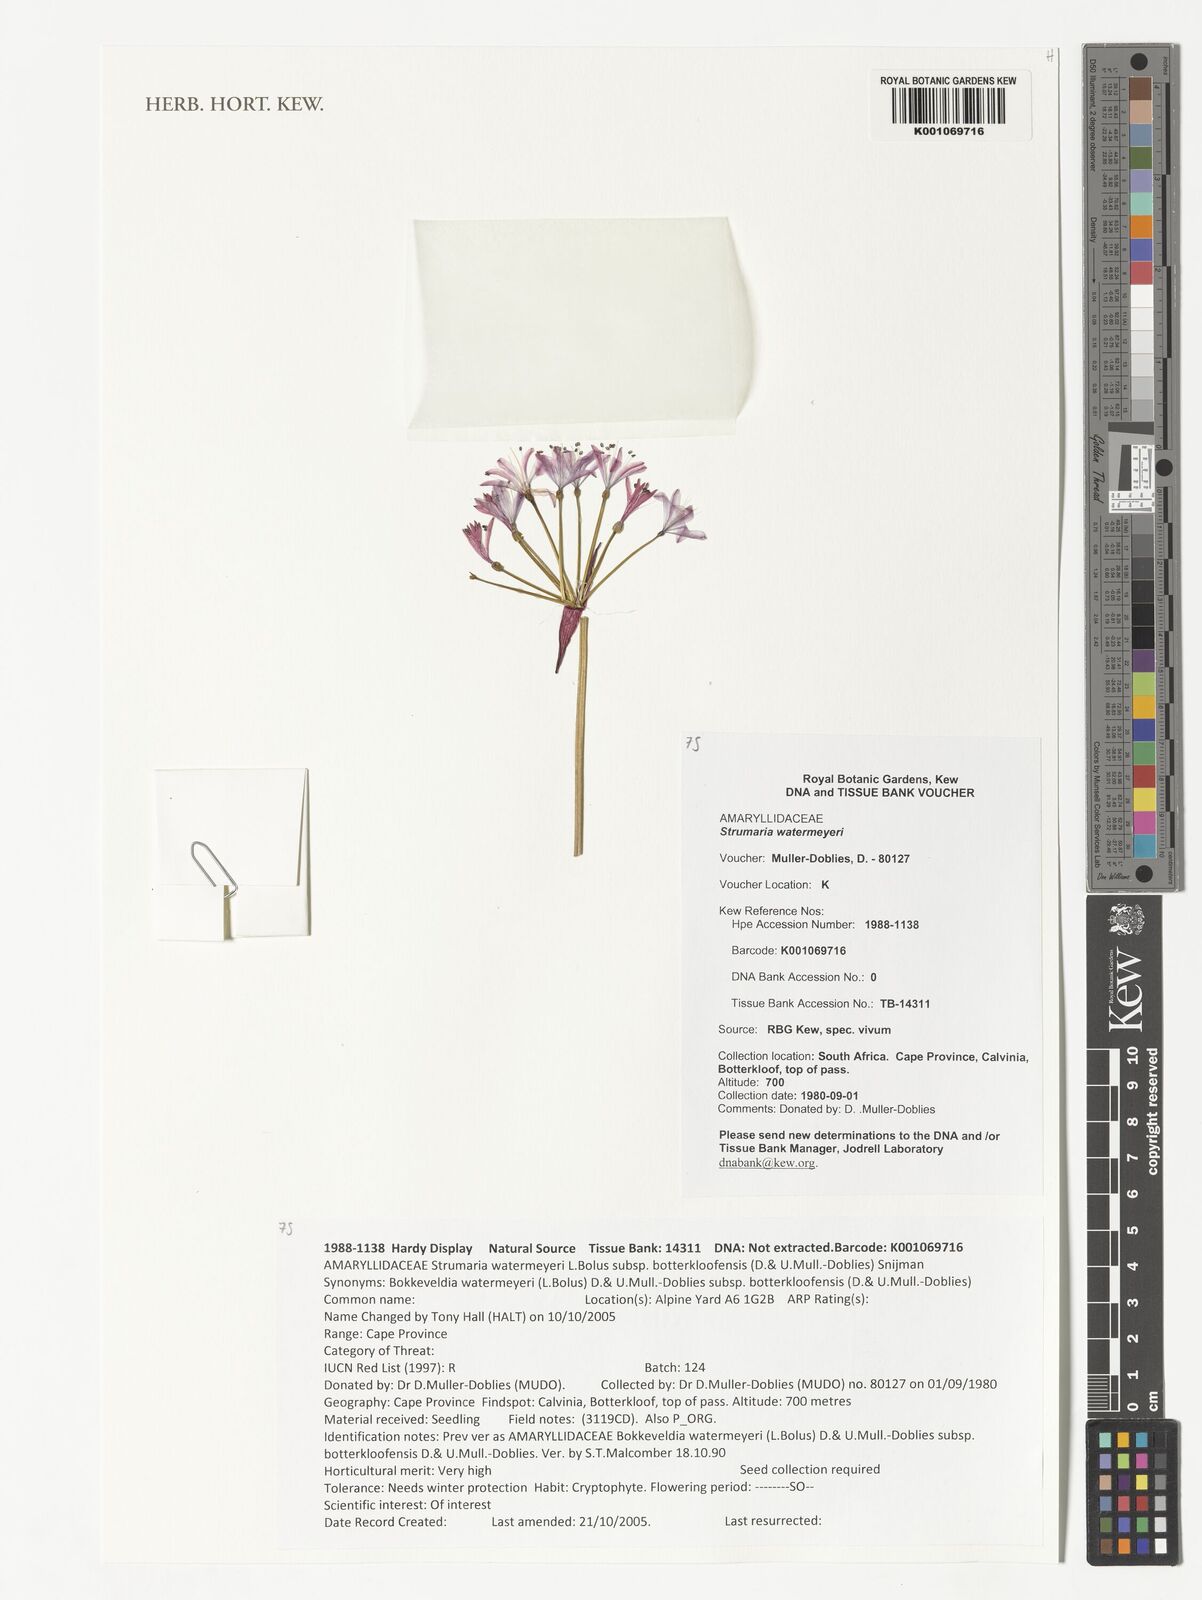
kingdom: Plantae
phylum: Tracheophyta
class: Liliopsida
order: Asparagales
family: Amaryllidaceae
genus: Strumaria
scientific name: Strumaria watermeyeri
